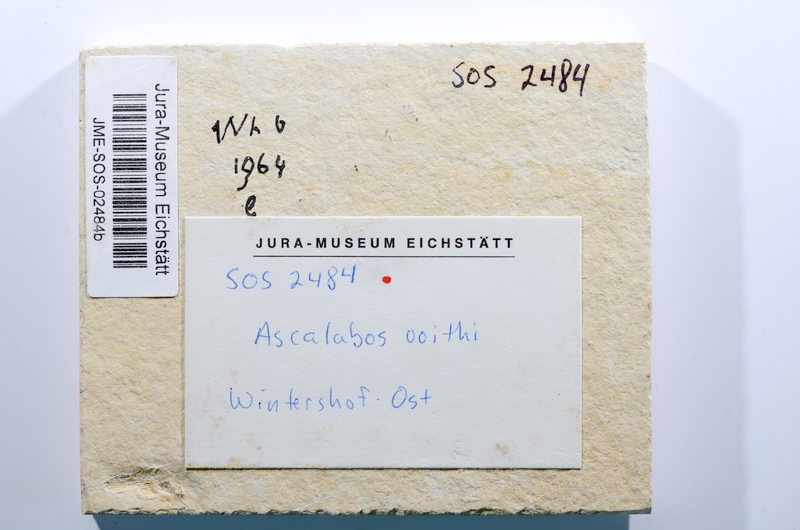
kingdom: Animalia
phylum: Chordata
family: Ascalaboidae
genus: Ascalabos
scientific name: Ascalabos voithii
